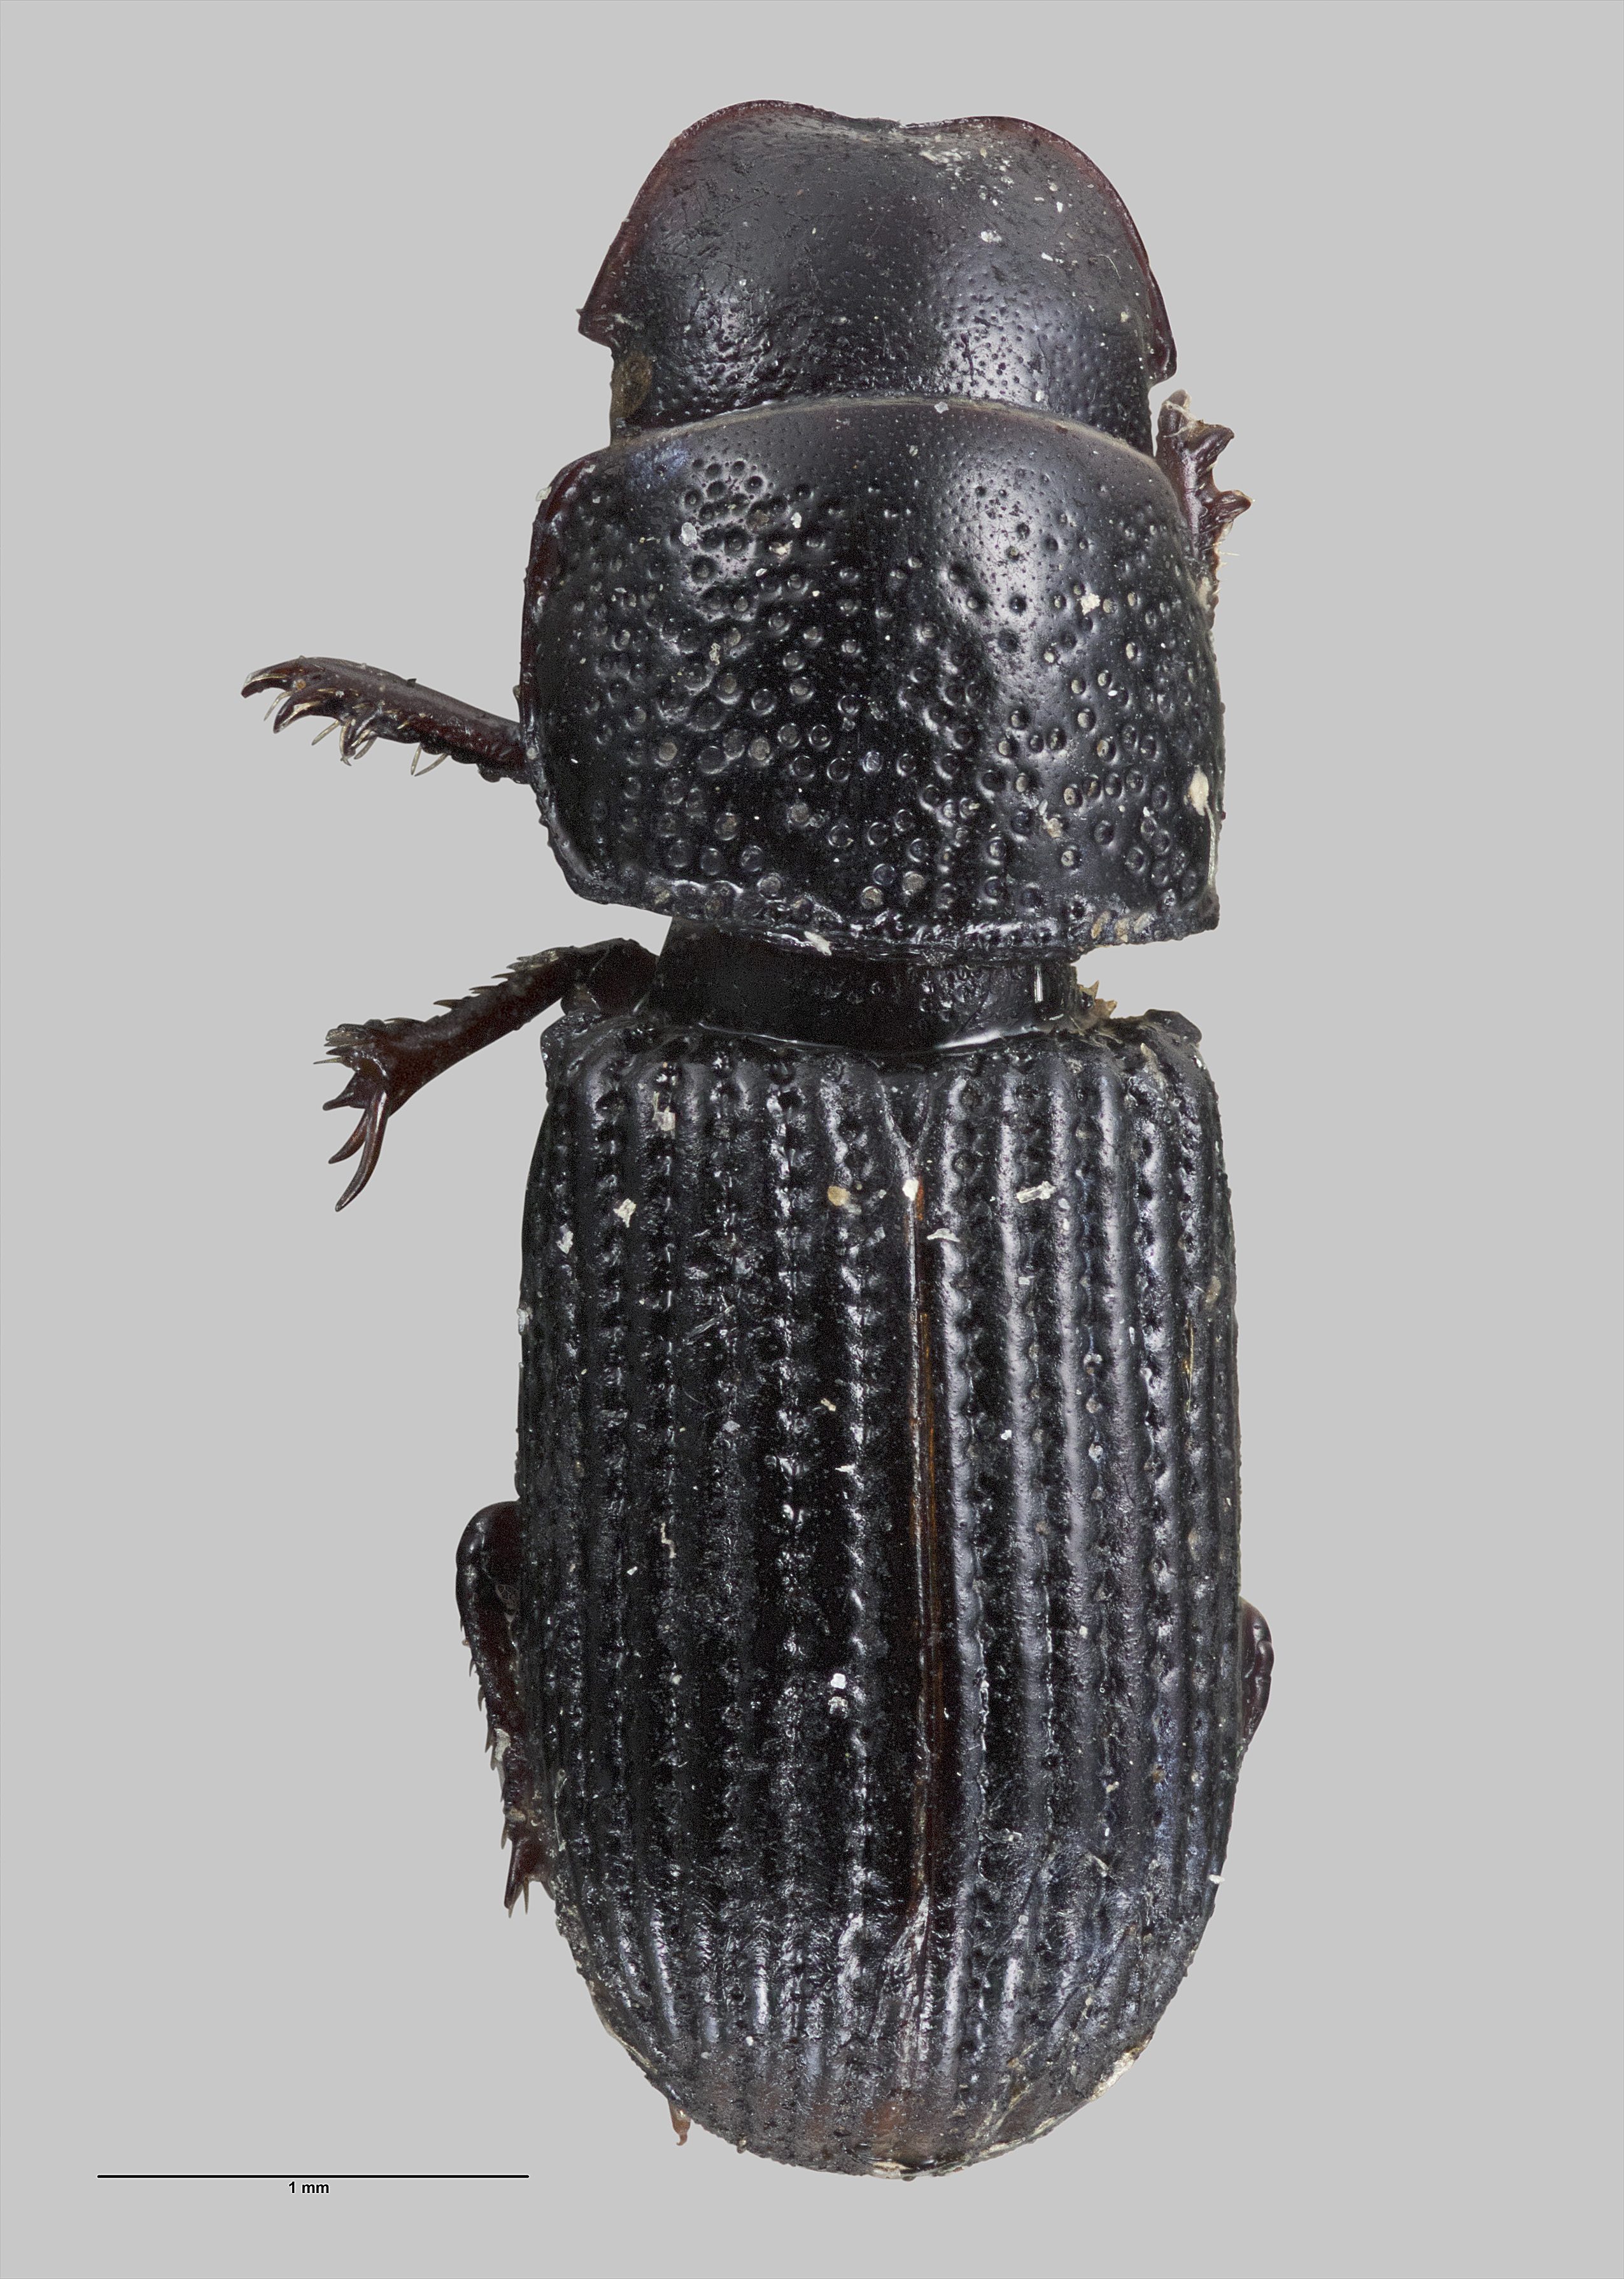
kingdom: Animalia
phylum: Arthropoda
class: Insecta
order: Coleoptera
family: Scarabaeidae
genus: Saprosites
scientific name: Saprosites raoulensis
